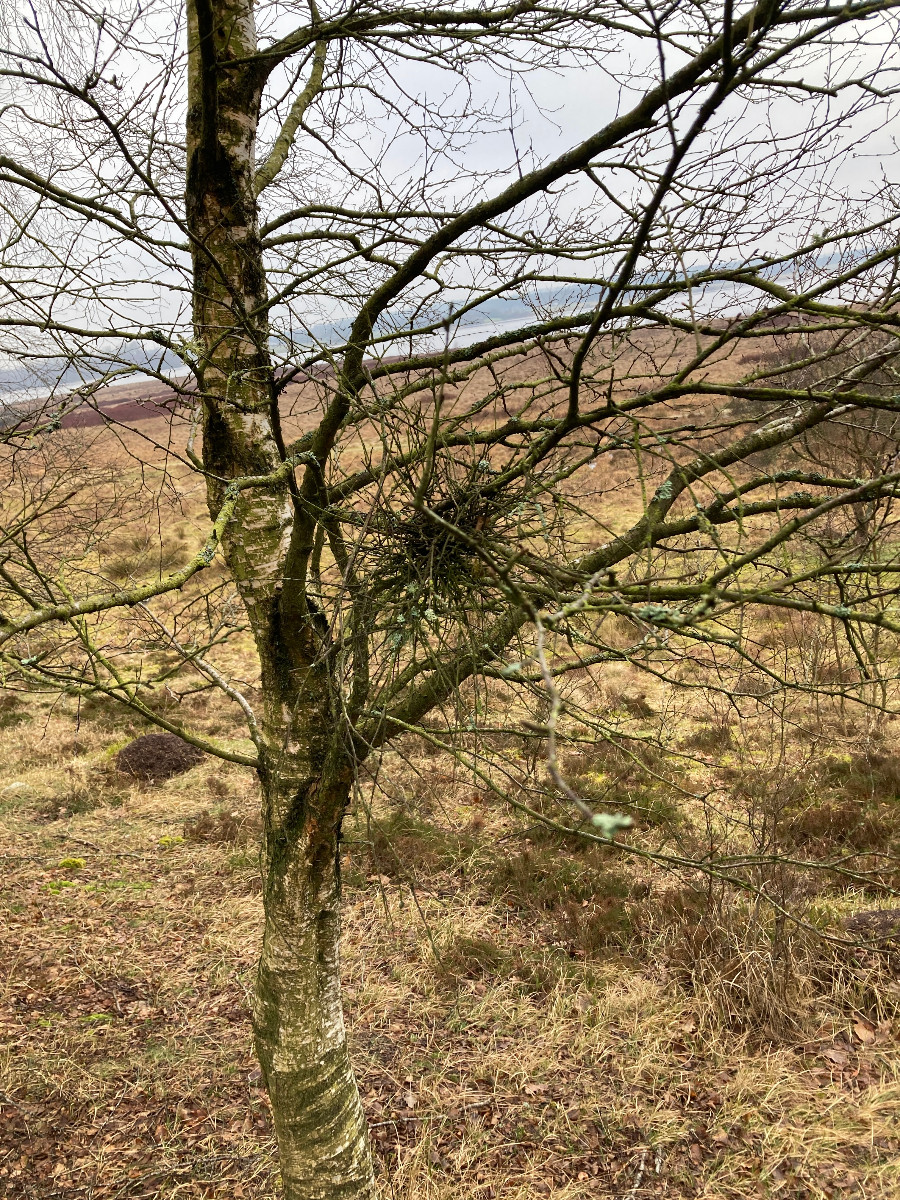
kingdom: Fungi
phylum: Ascomycota
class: Taphrinomycetes
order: Taphrinales
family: Taphrinaceae
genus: Taphrina
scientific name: Taphrina betulina
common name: hekse-sækdug
